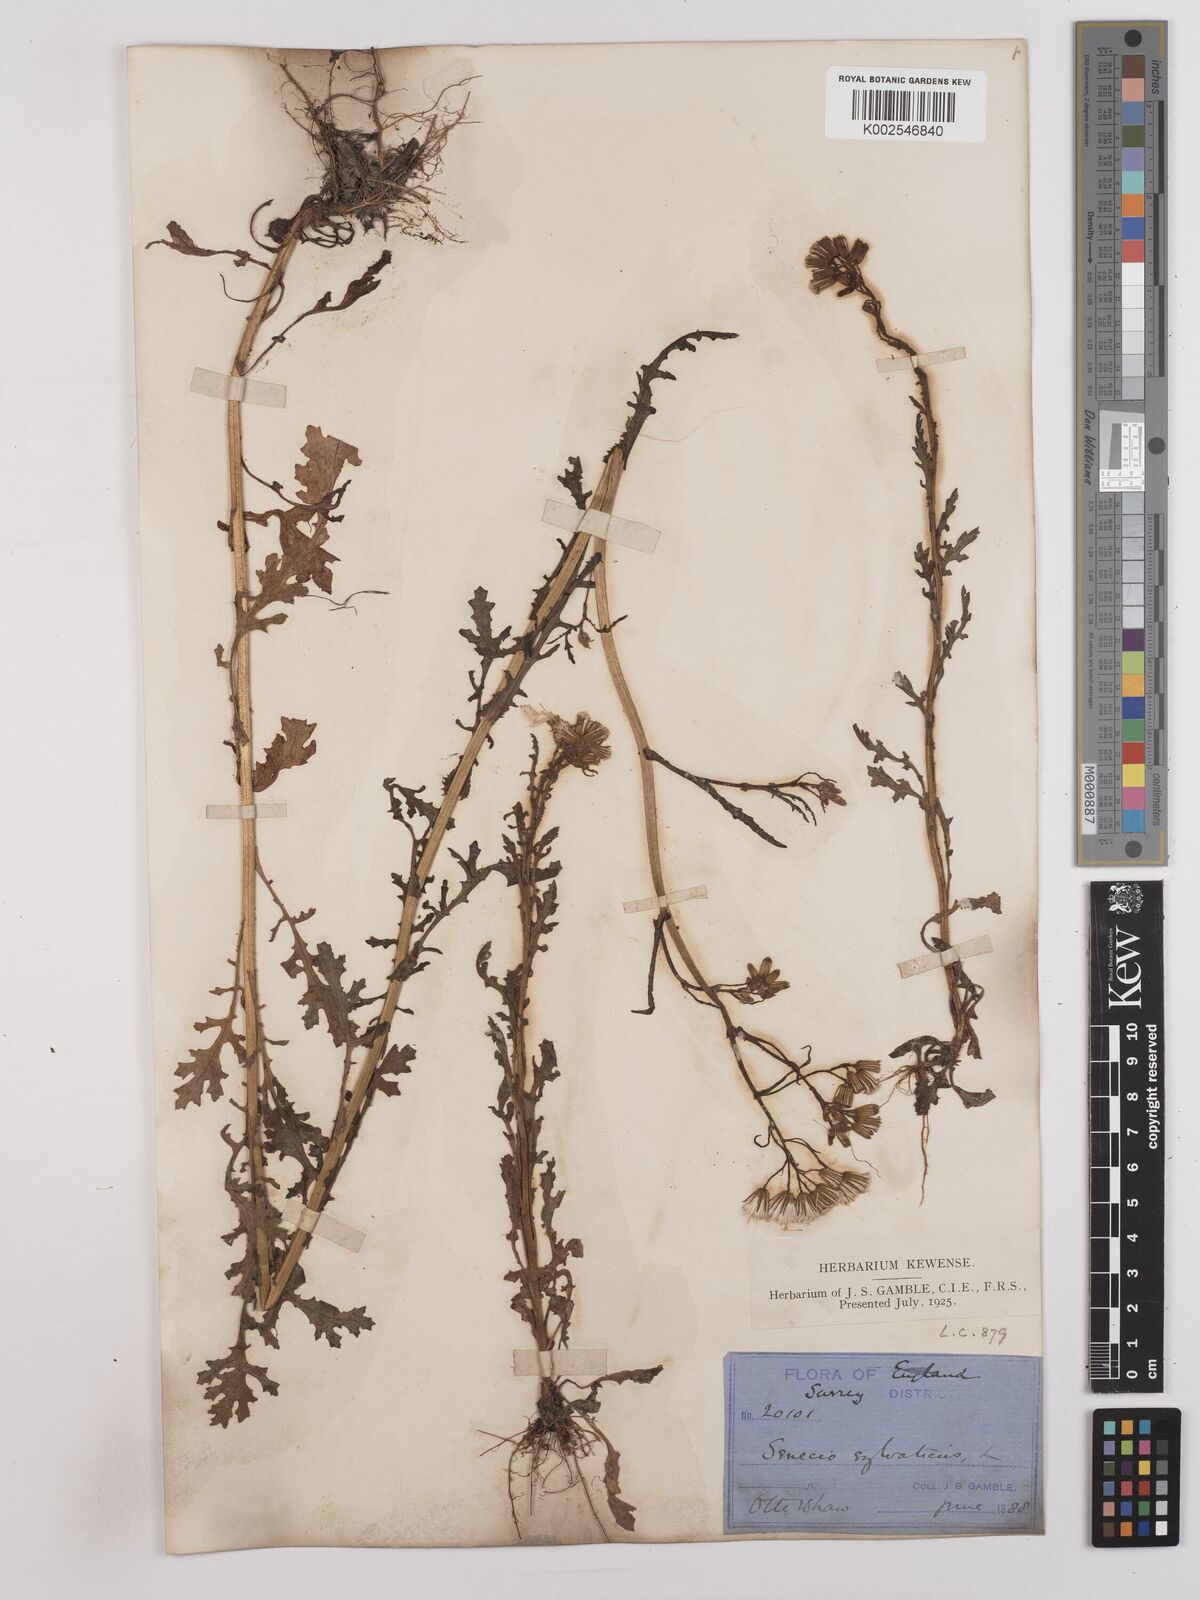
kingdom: Plantae
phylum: Tracheophyta
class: Magnoliopsida
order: Asterales
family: Asteraceae
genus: Senecio
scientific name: Senecio sylvaticus
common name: Woodland ragwort
